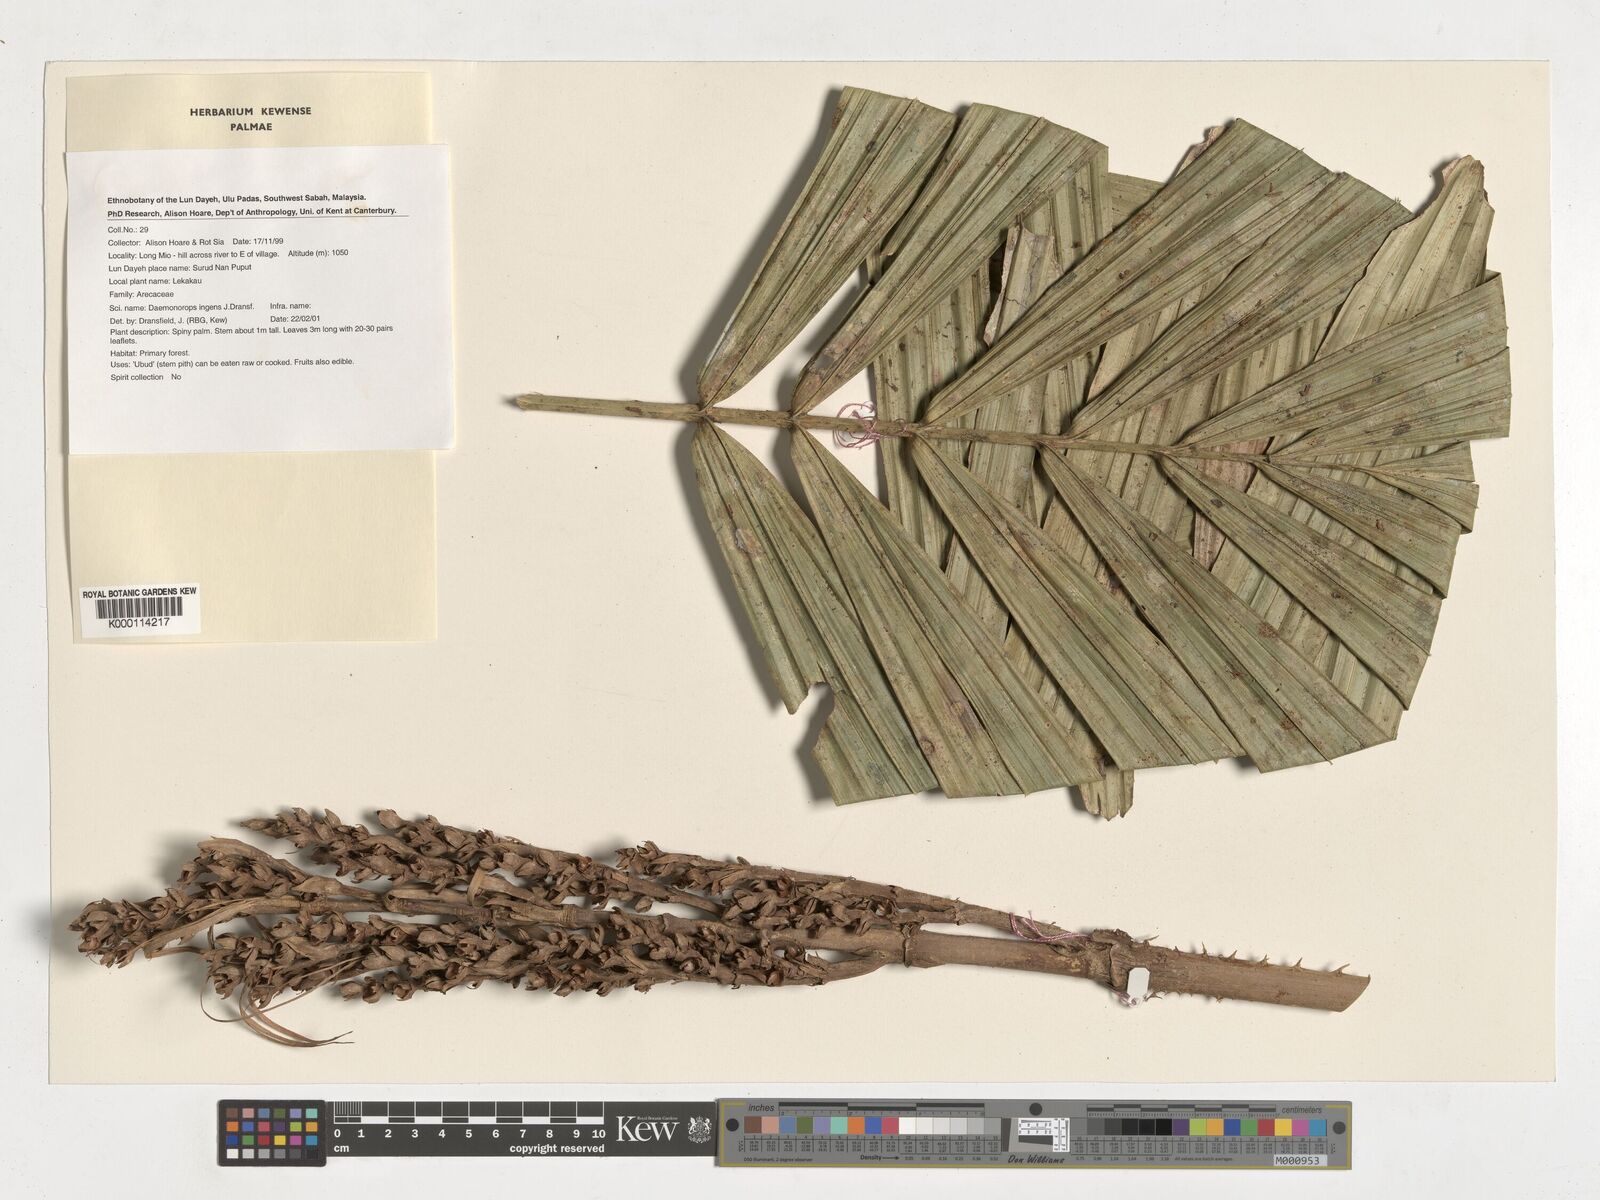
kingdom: Plantae
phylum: Tracheophyta
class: Liliopsida
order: Arecales
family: Arecaceae
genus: Calamus
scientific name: Calamus ingens
